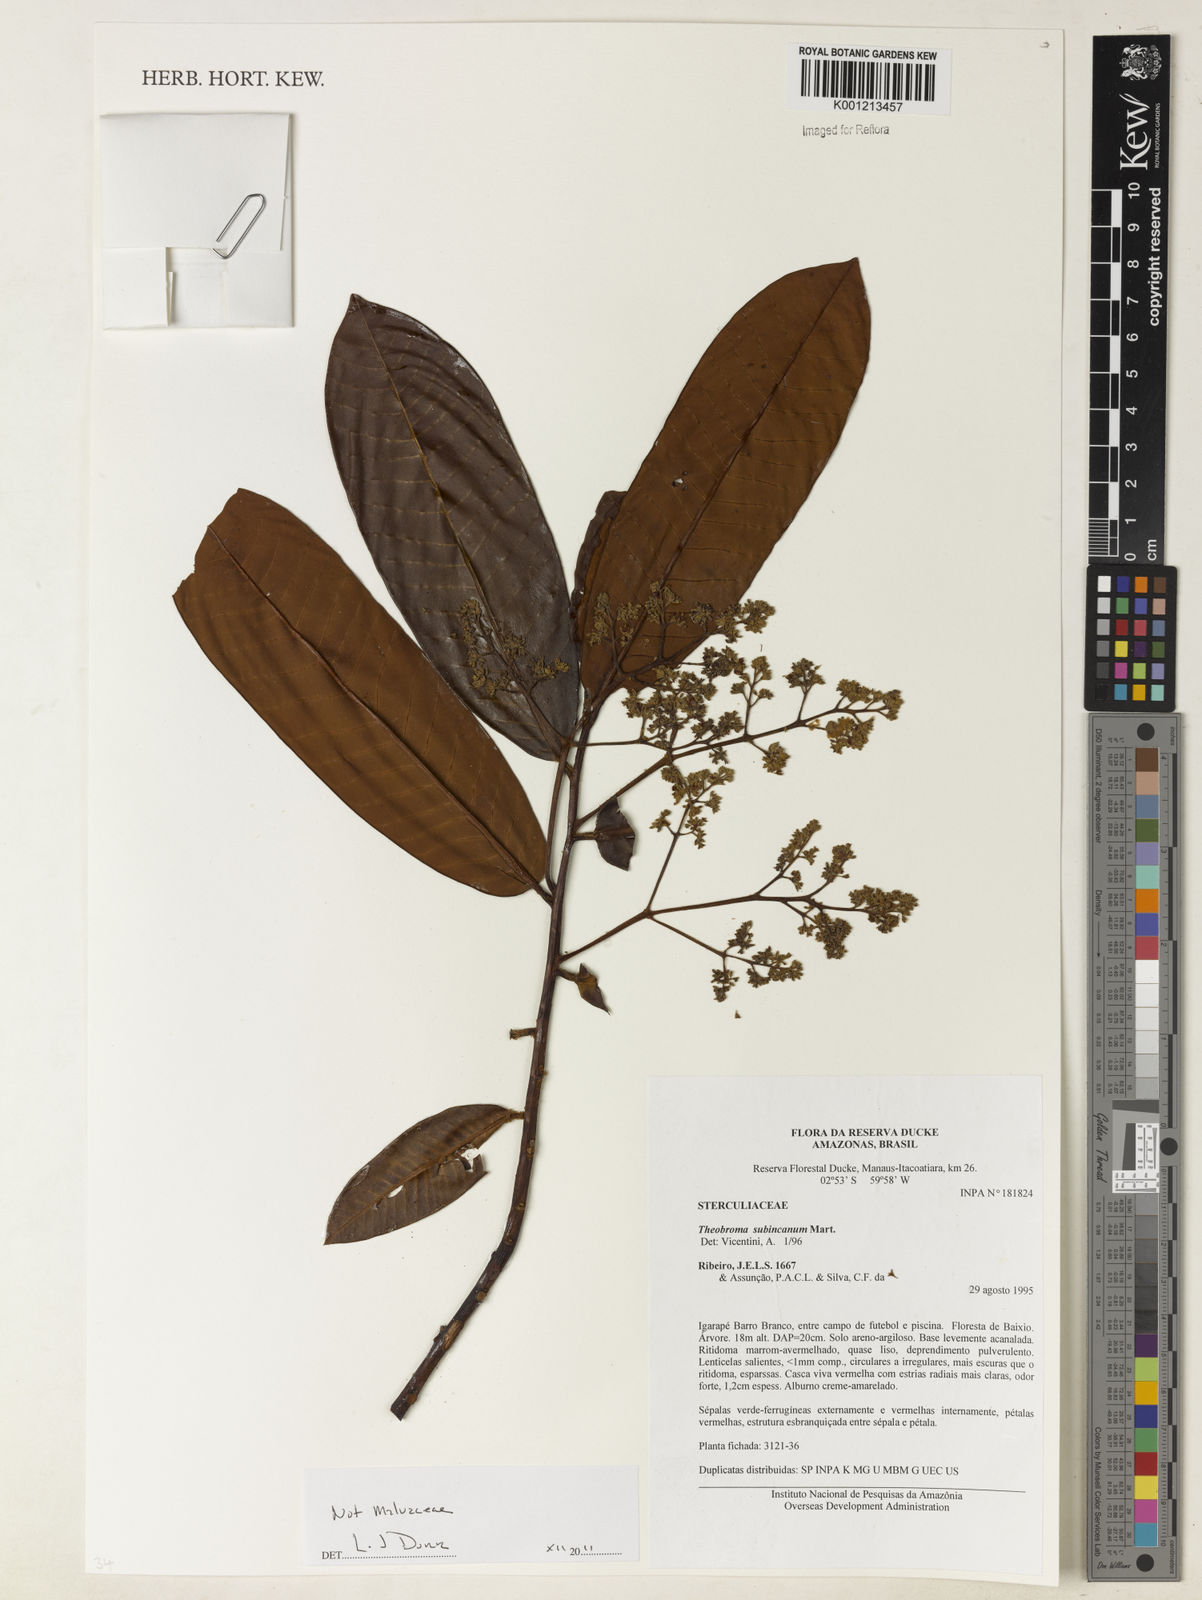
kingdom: Plantae
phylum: Tracheophyta
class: Magnoliopsida
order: Magnoliales
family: Myristicaceae
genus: Virola
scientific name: Virola sebifera
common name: Red ucuuba
